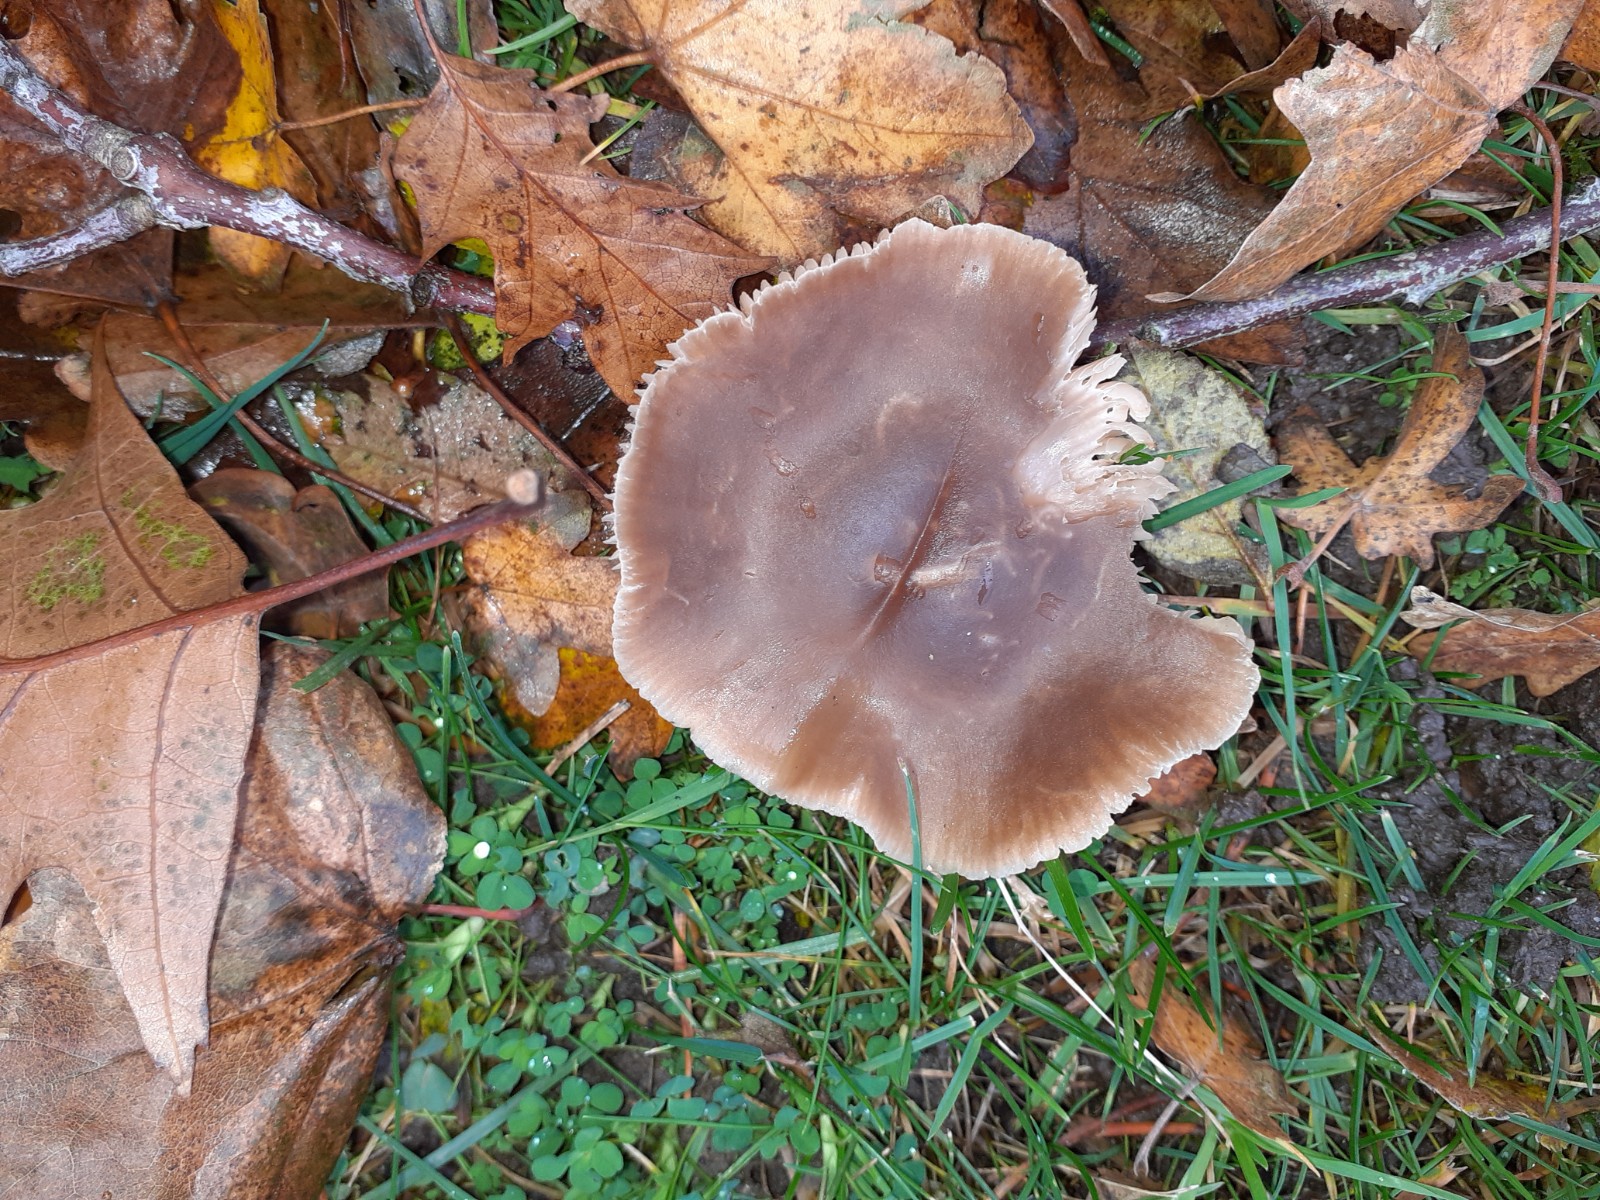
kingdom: Fungi
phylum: Basidiomycota
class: Agaricomycetes
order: Agaricales
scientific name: Agaricales
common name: champignonordenen
